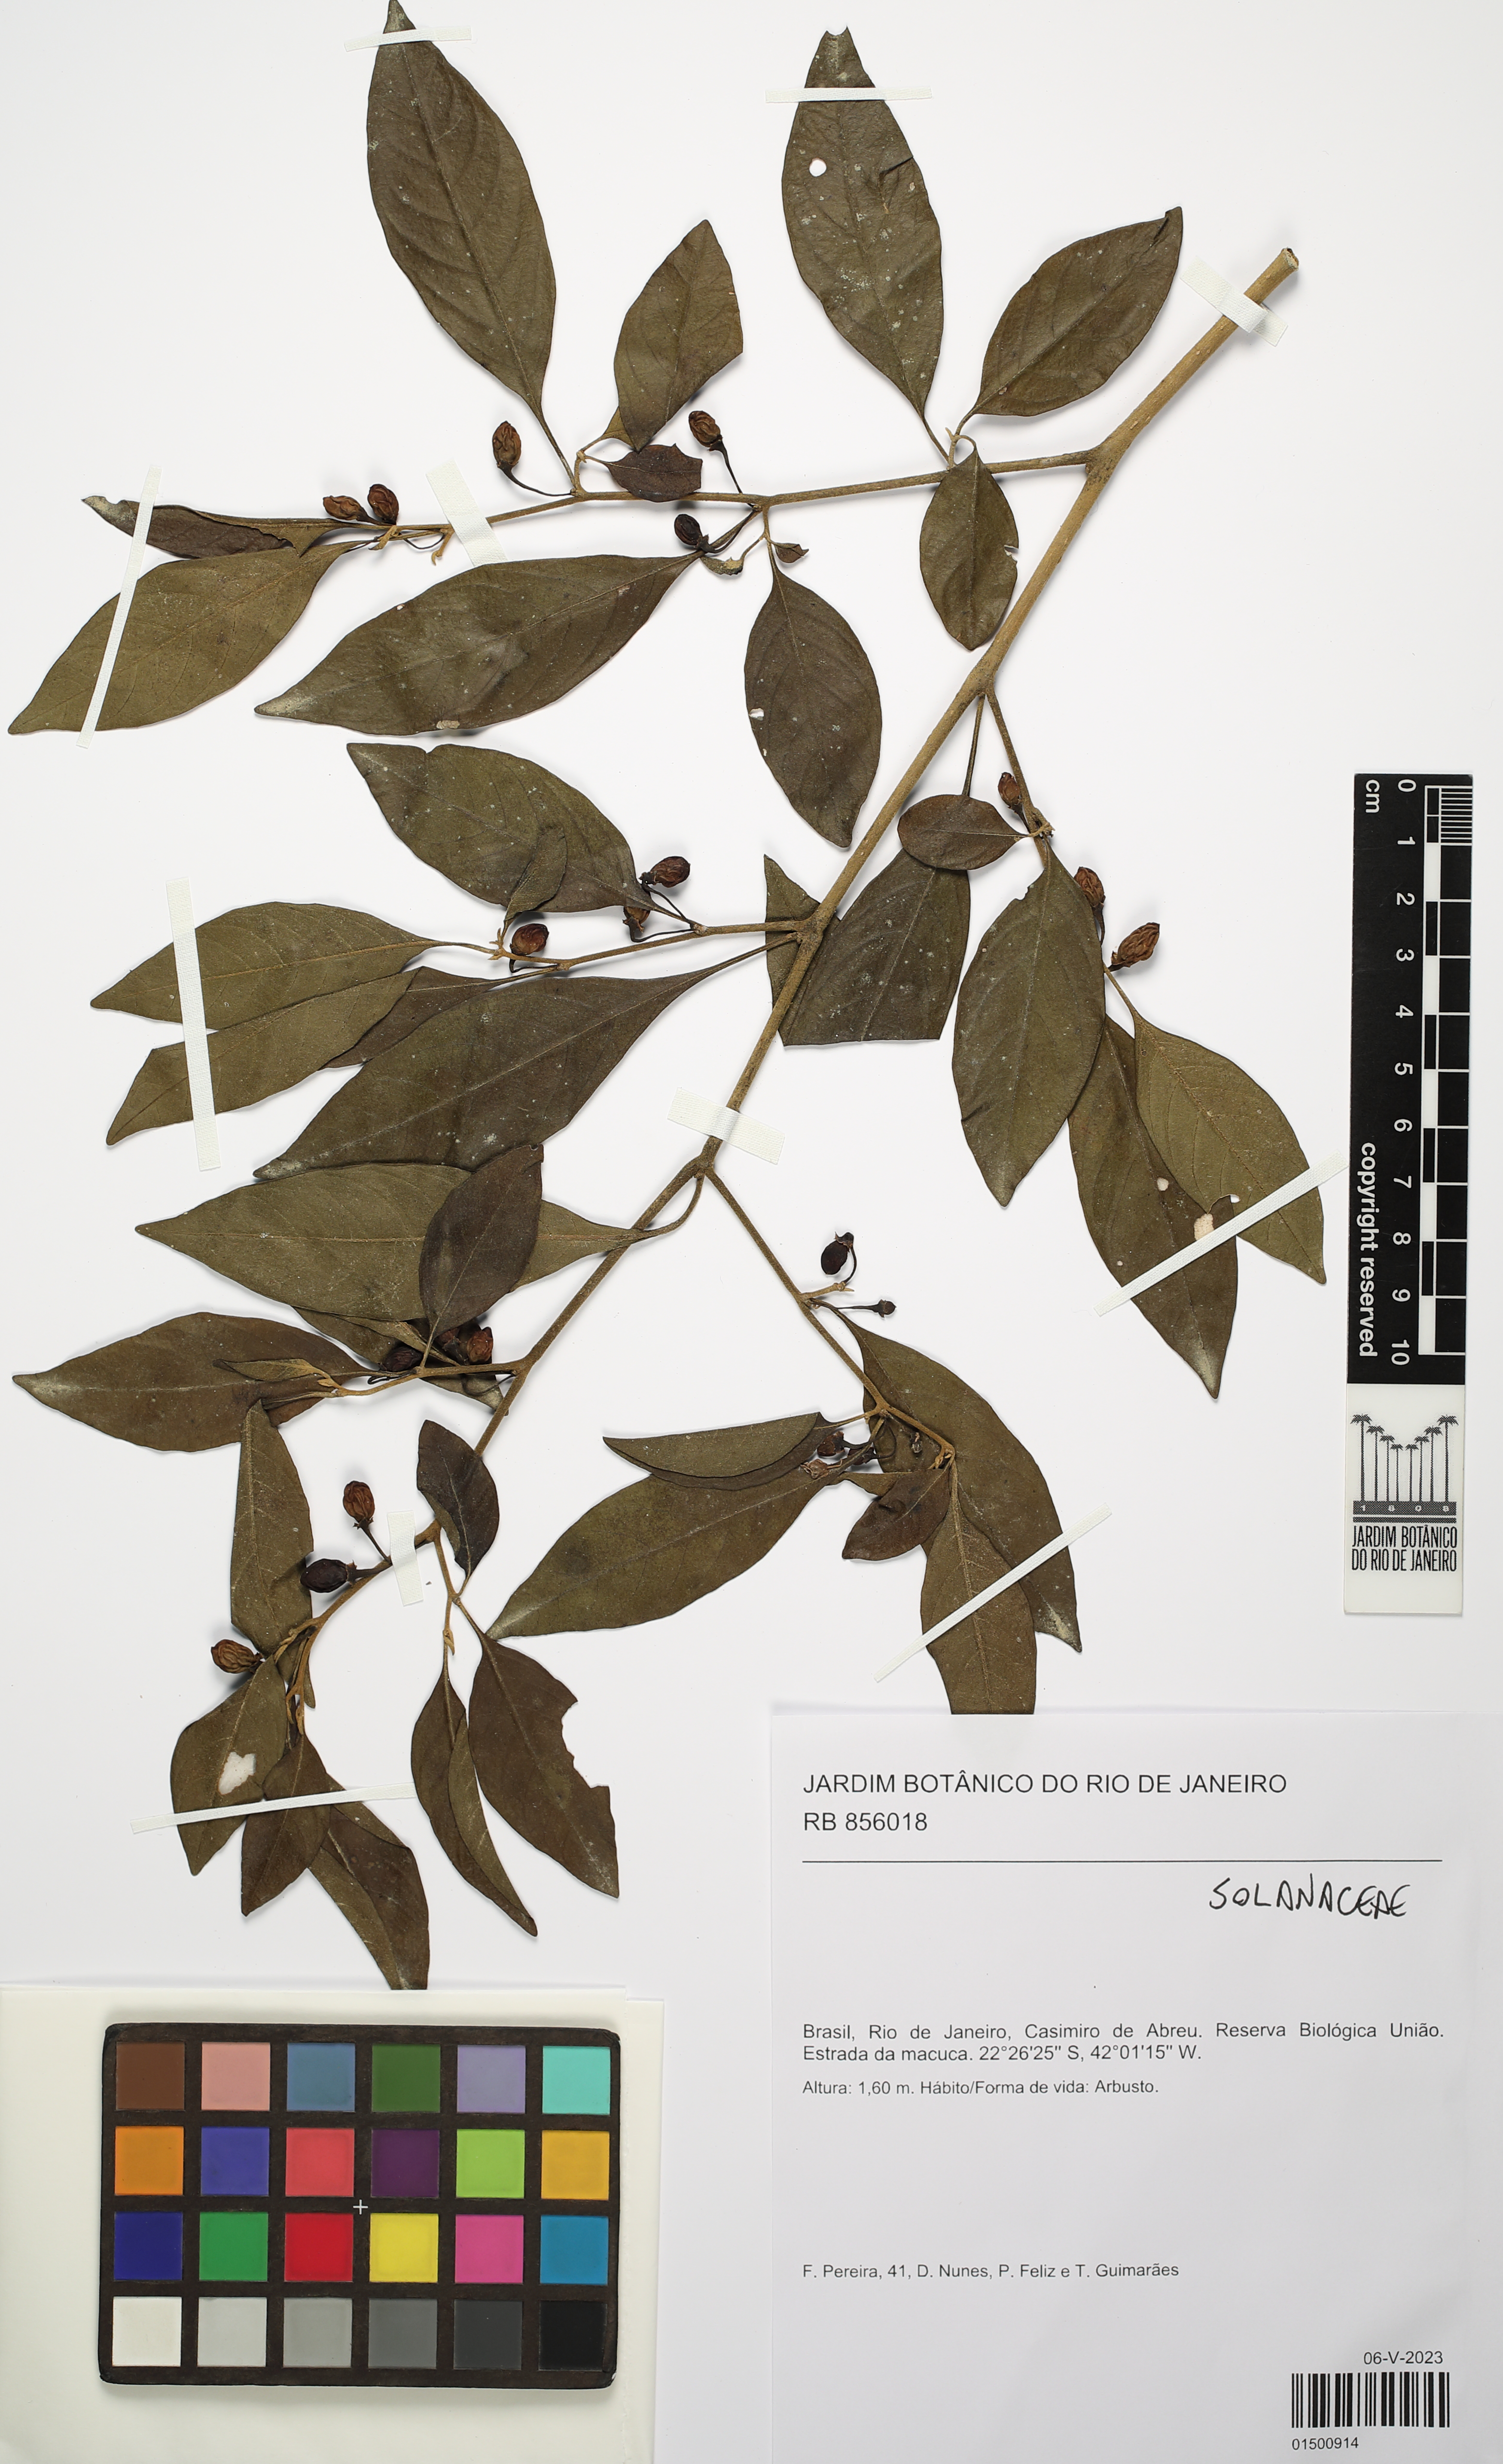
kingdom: Plantae
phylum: Tracheophyta
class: Magnoliopsida
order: Solanales
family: Solanaceae
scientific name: Solanaceae
